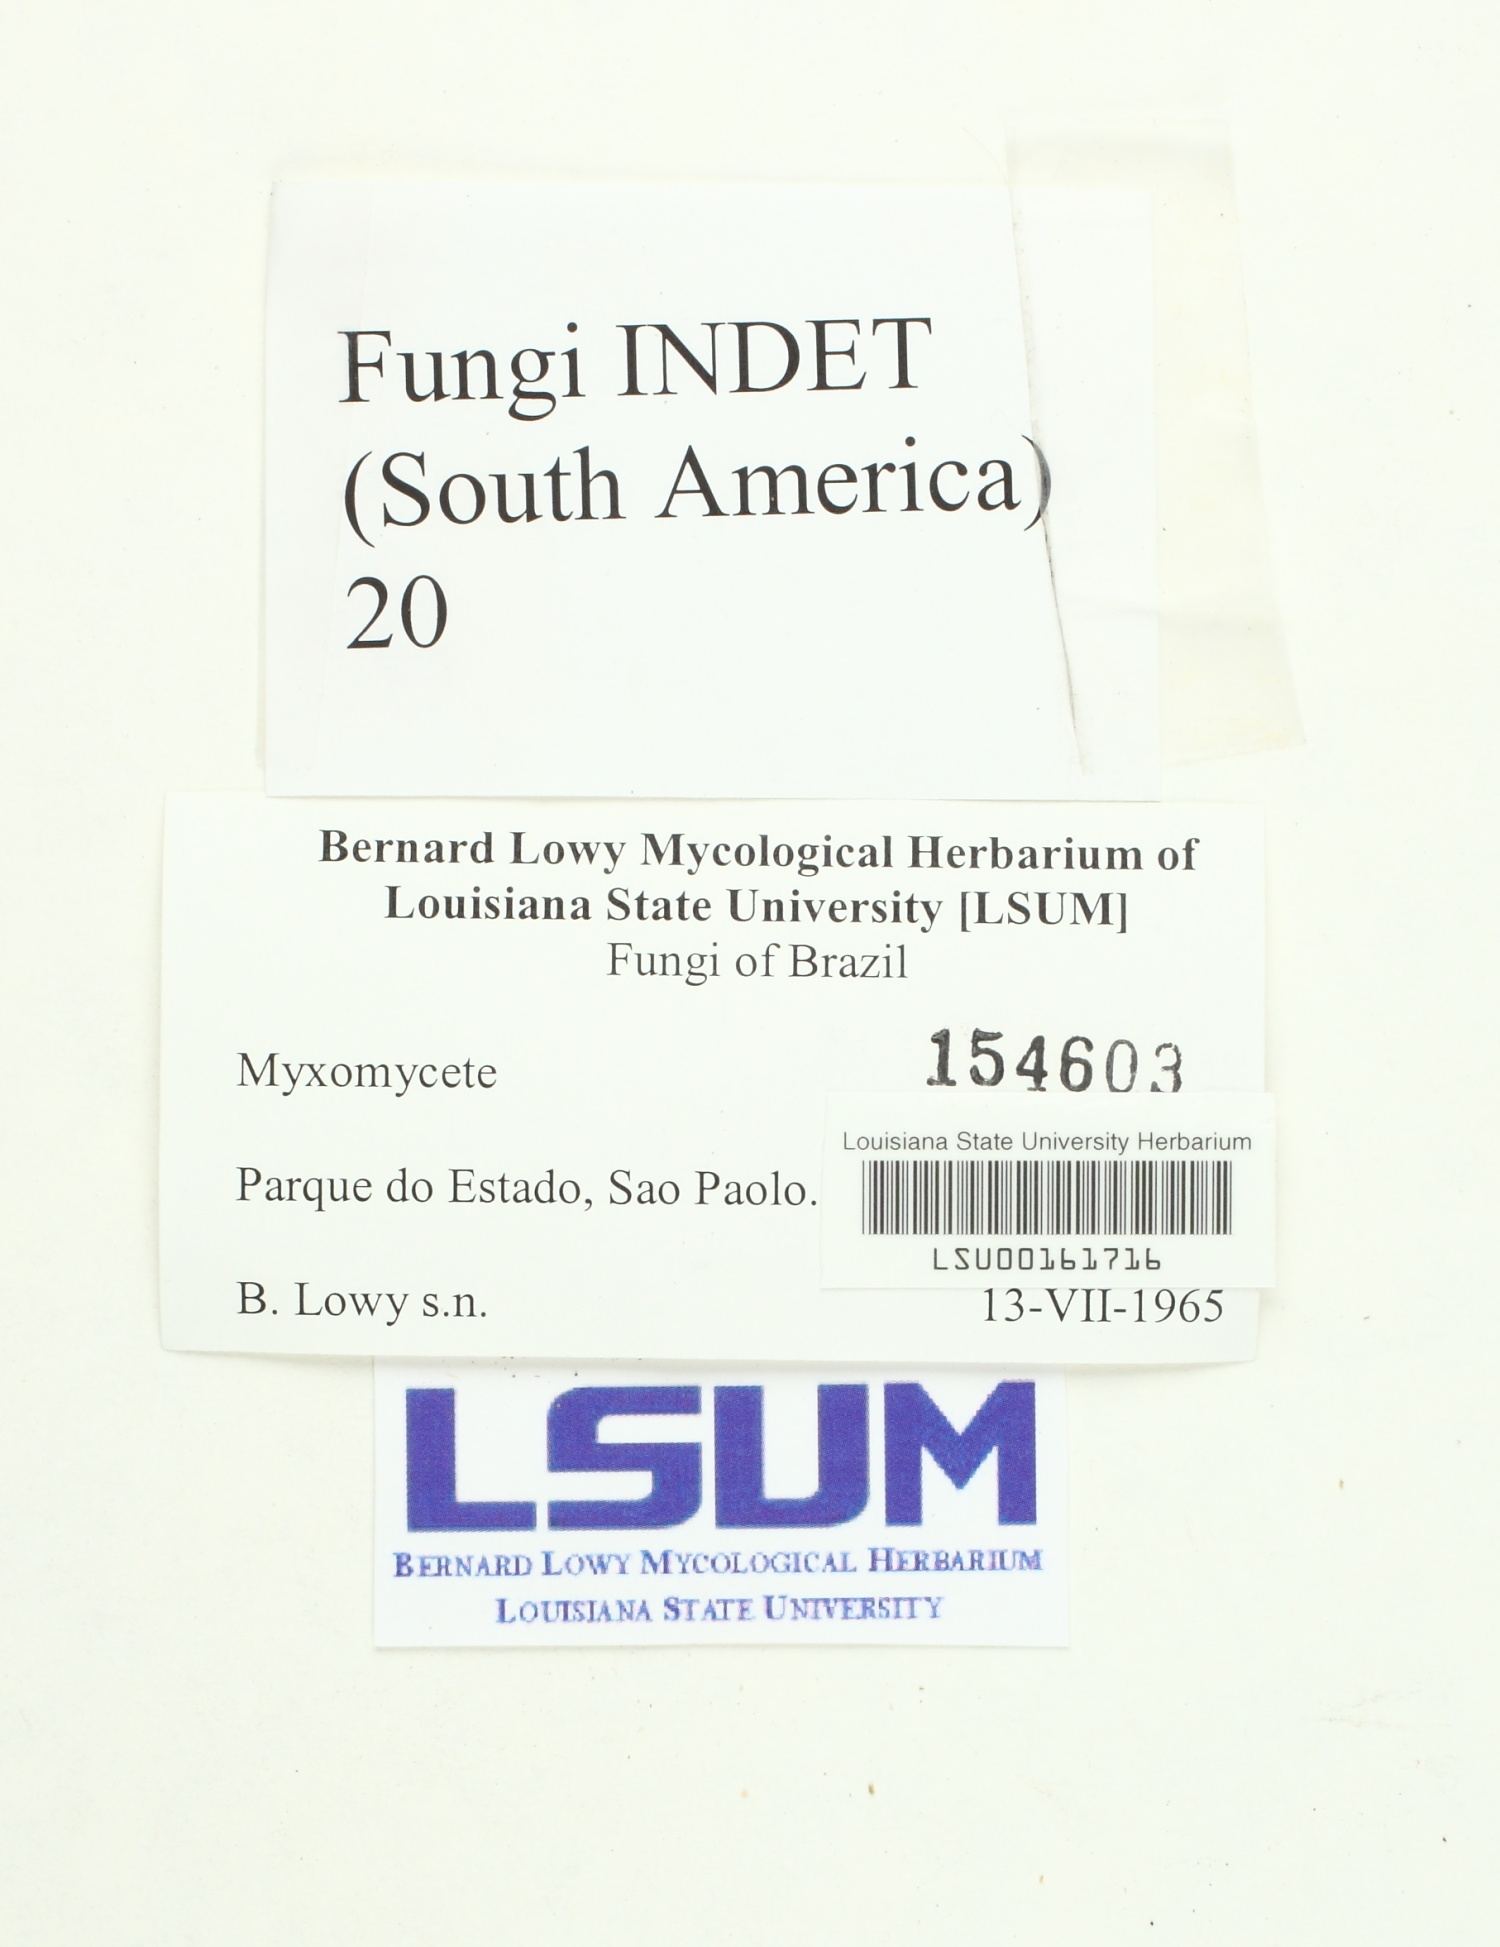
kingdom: Fungi
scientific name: Fungi
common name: Fungi
